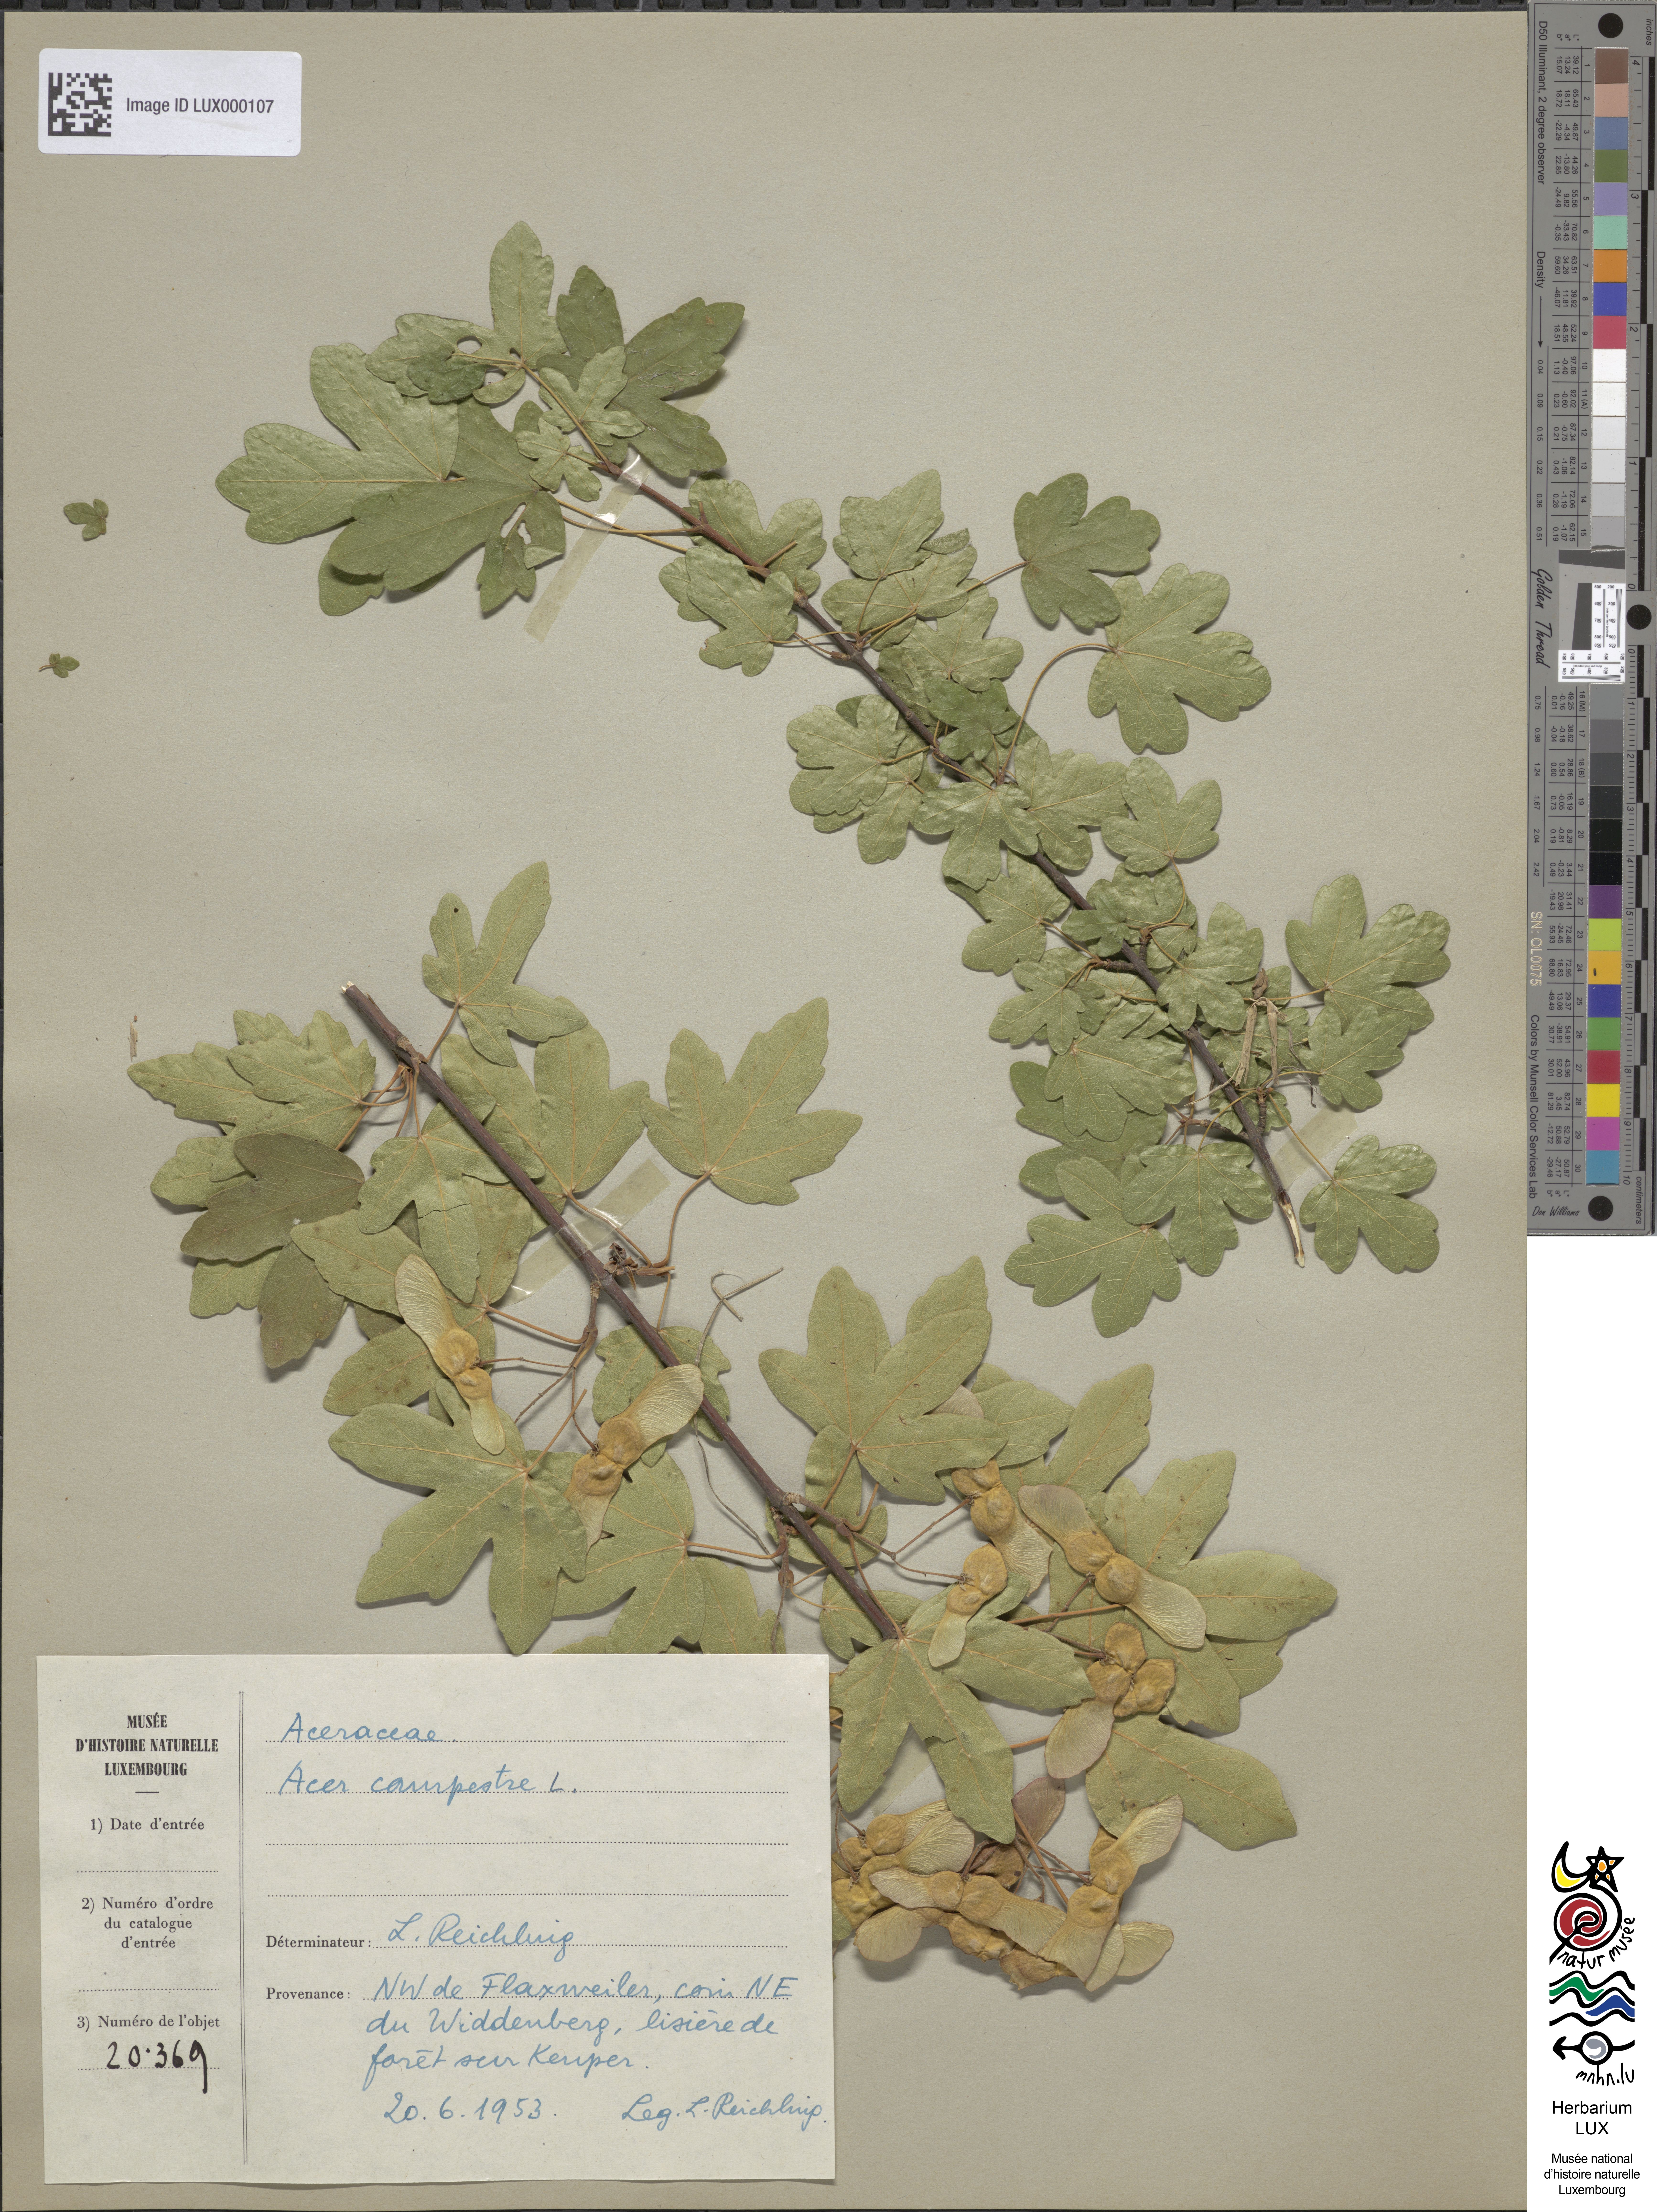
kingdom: Plantae
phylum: Tracheophyta
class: Magnoliopsida
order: Sapindales
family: Sapindaceae
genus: Acer
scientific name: Acer campestre
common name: Field maple
